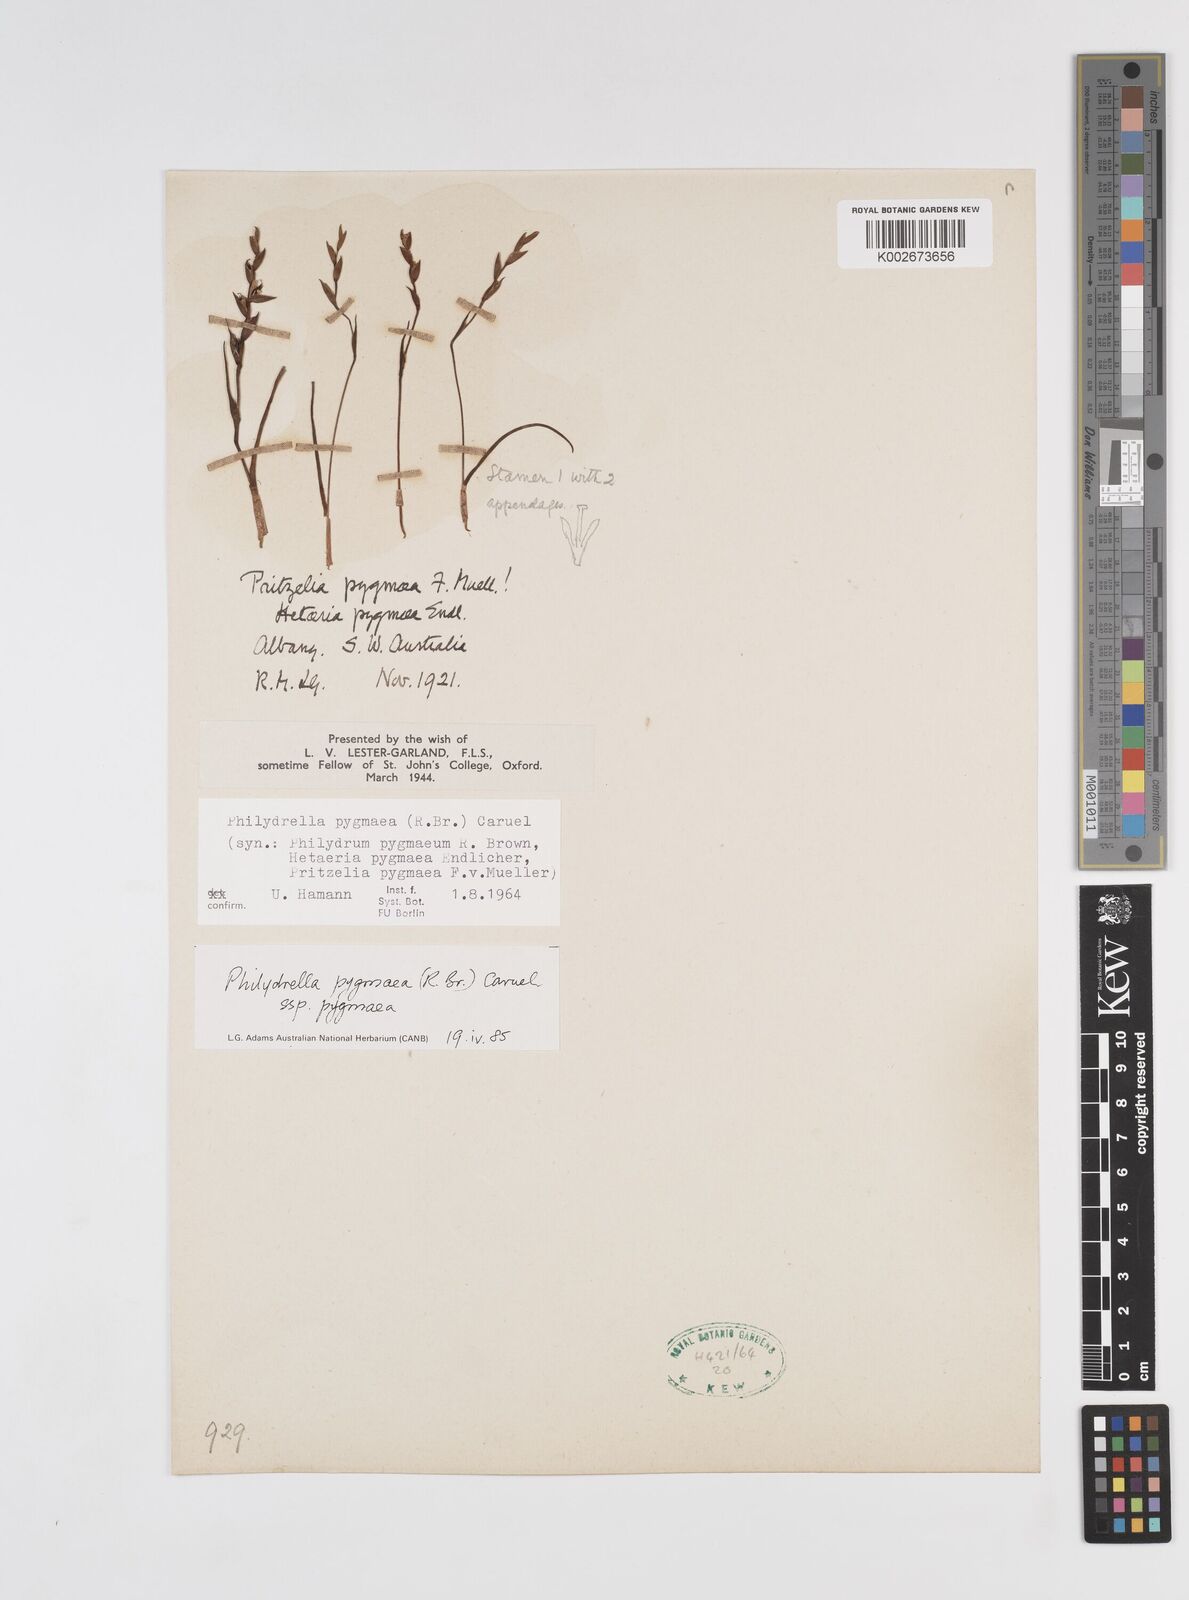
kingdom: Plantae
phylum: Tracheophyta
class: Liliopsida
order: Commelinales
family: Philydraceae
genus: Philydrella
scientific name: Philydrella pygmaea
